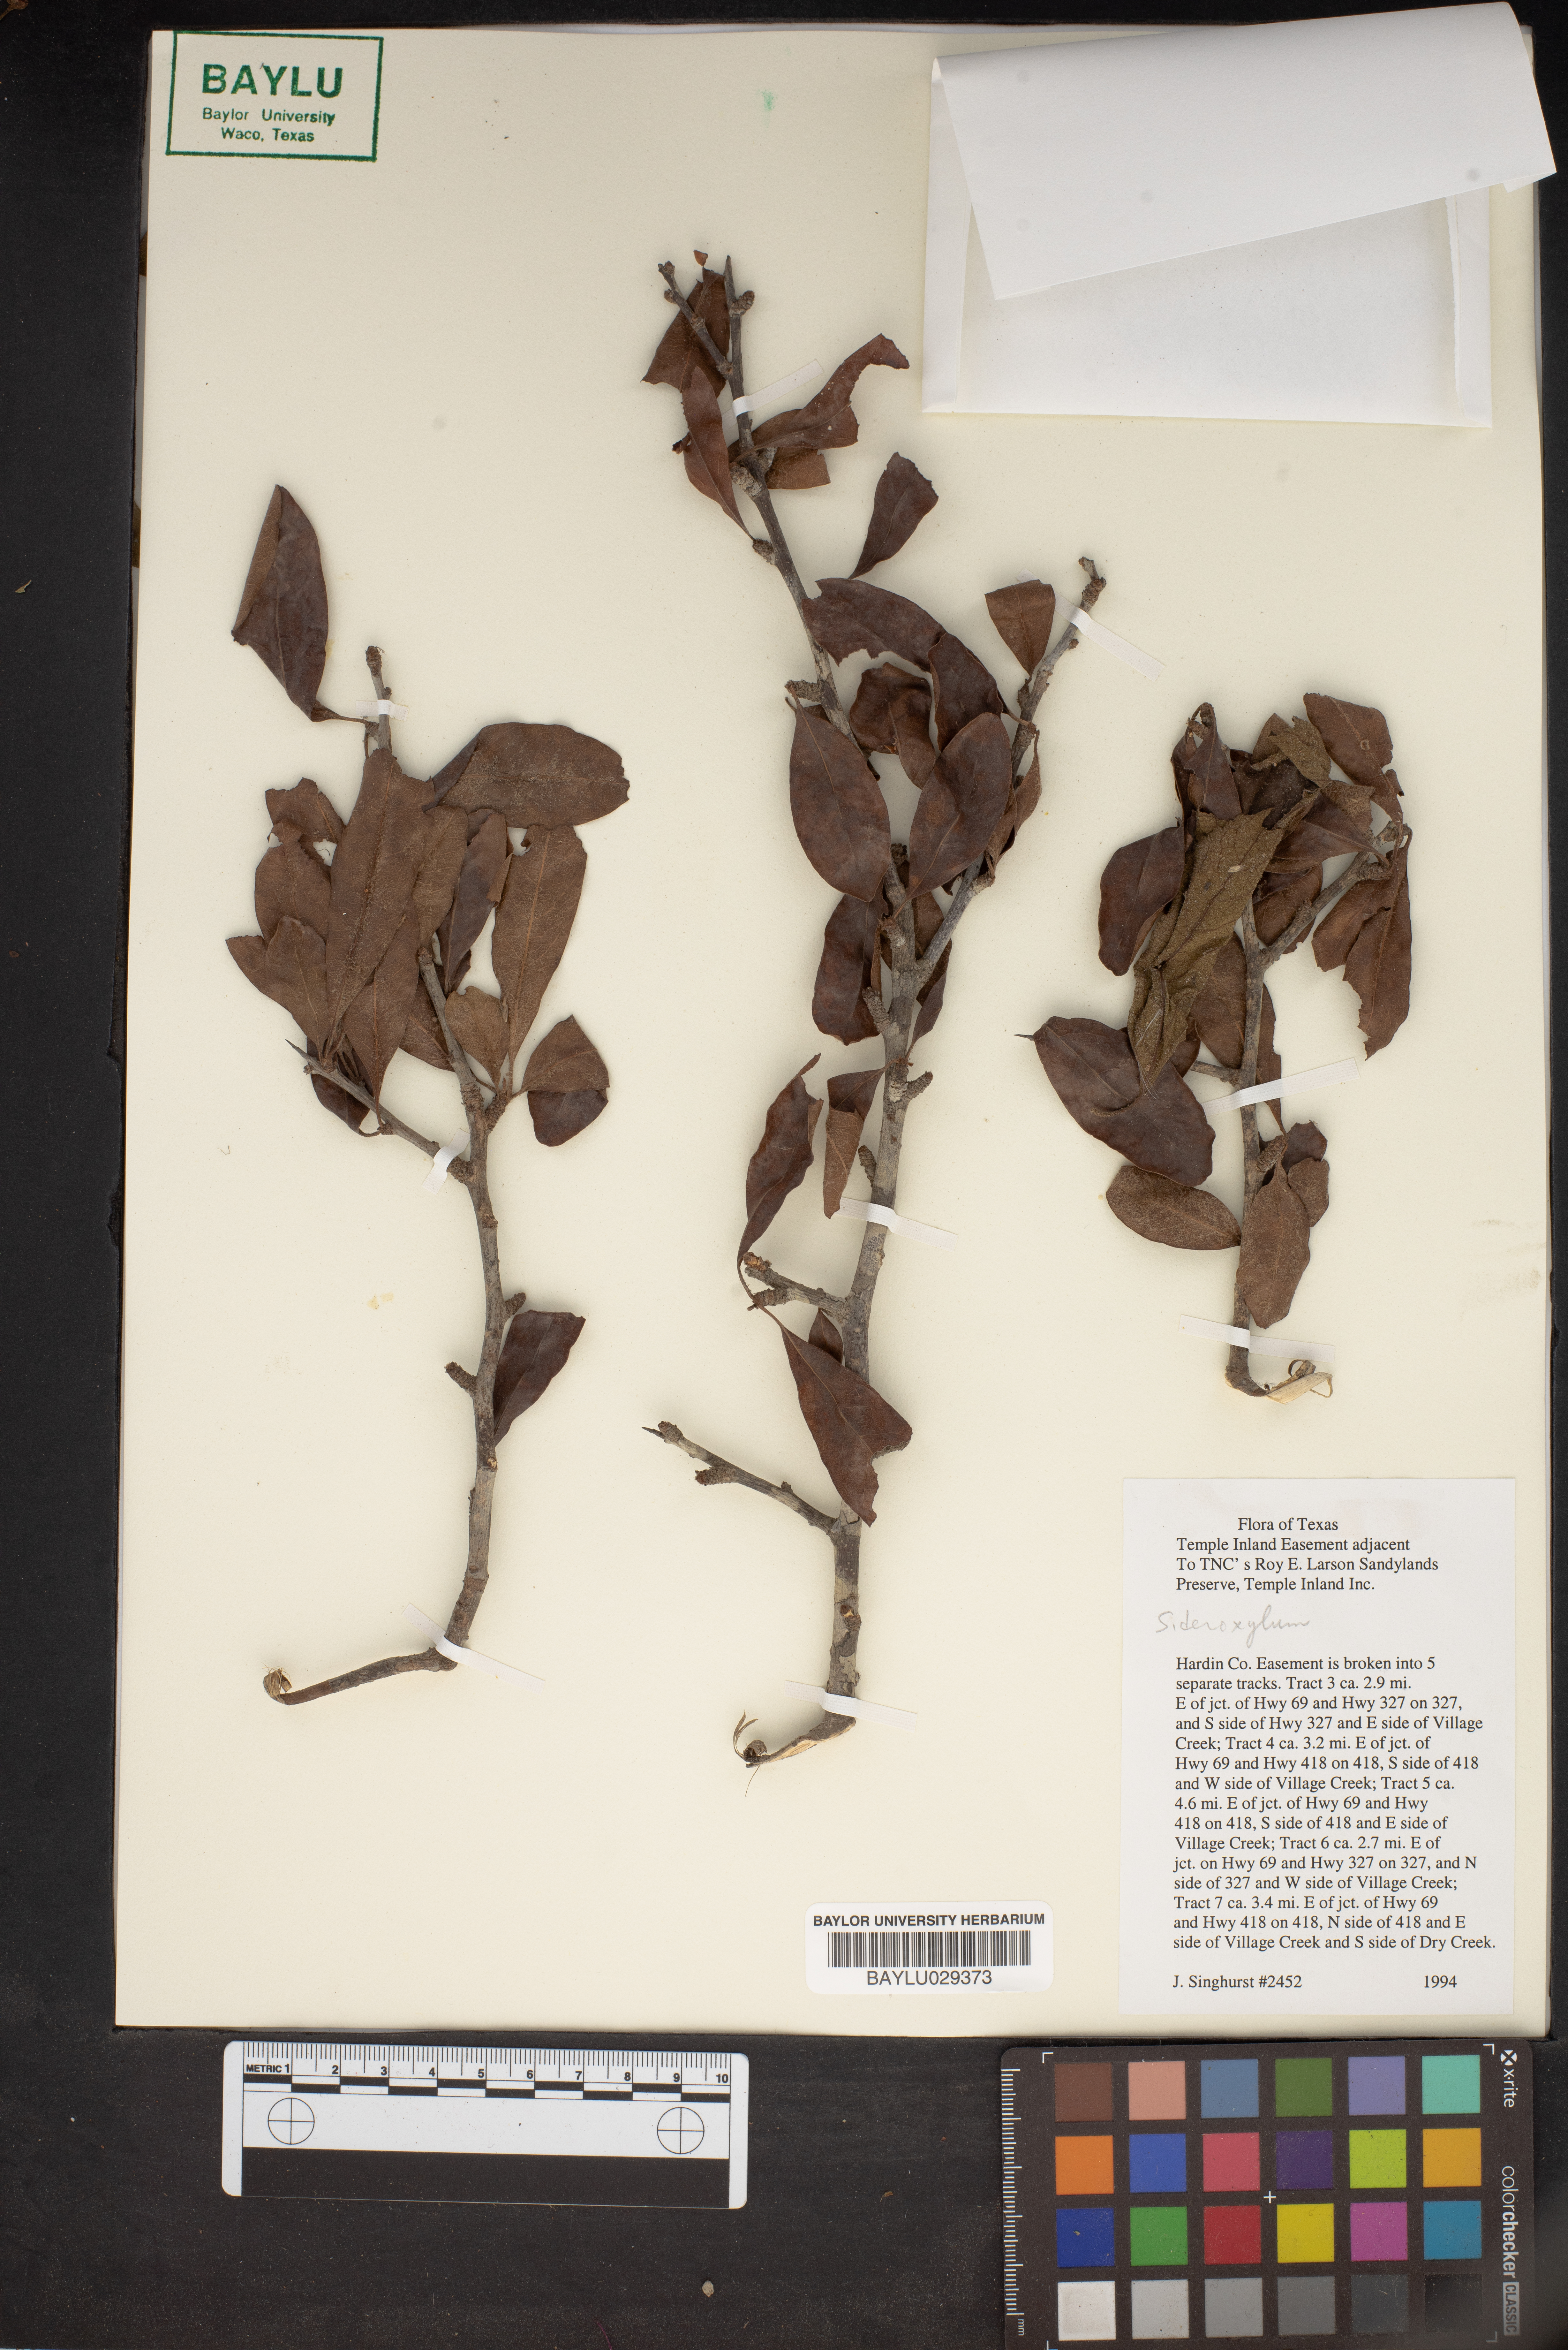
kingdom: Plantae
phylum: Tracheophyta
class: Magnoliopsida
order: Ericales
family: Sapotaceae
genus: Sideroxylon
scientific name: Sideroxylon
